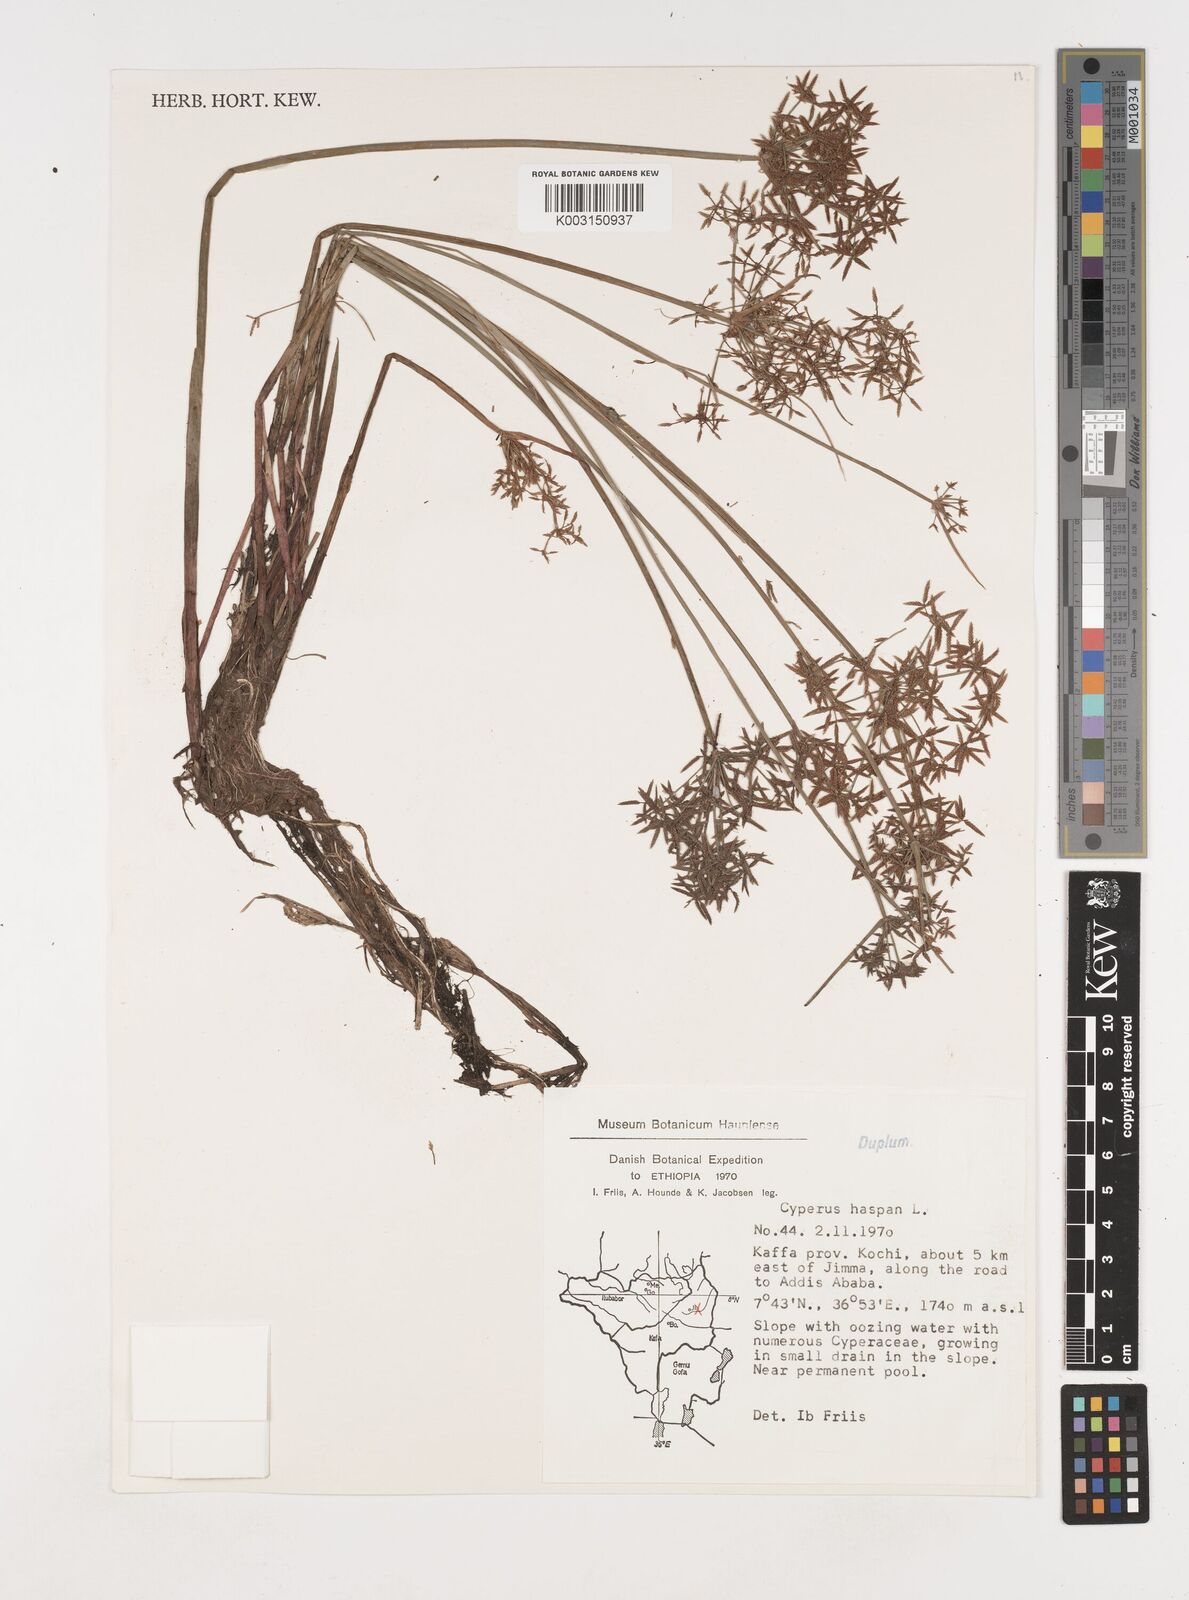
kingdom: Plantae
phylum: Tracheophyta
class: Liliopsida
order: Poales
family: Cyperaceae
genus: Cyperus
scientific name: Cyperus haspan
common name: Haspan flatsedge
